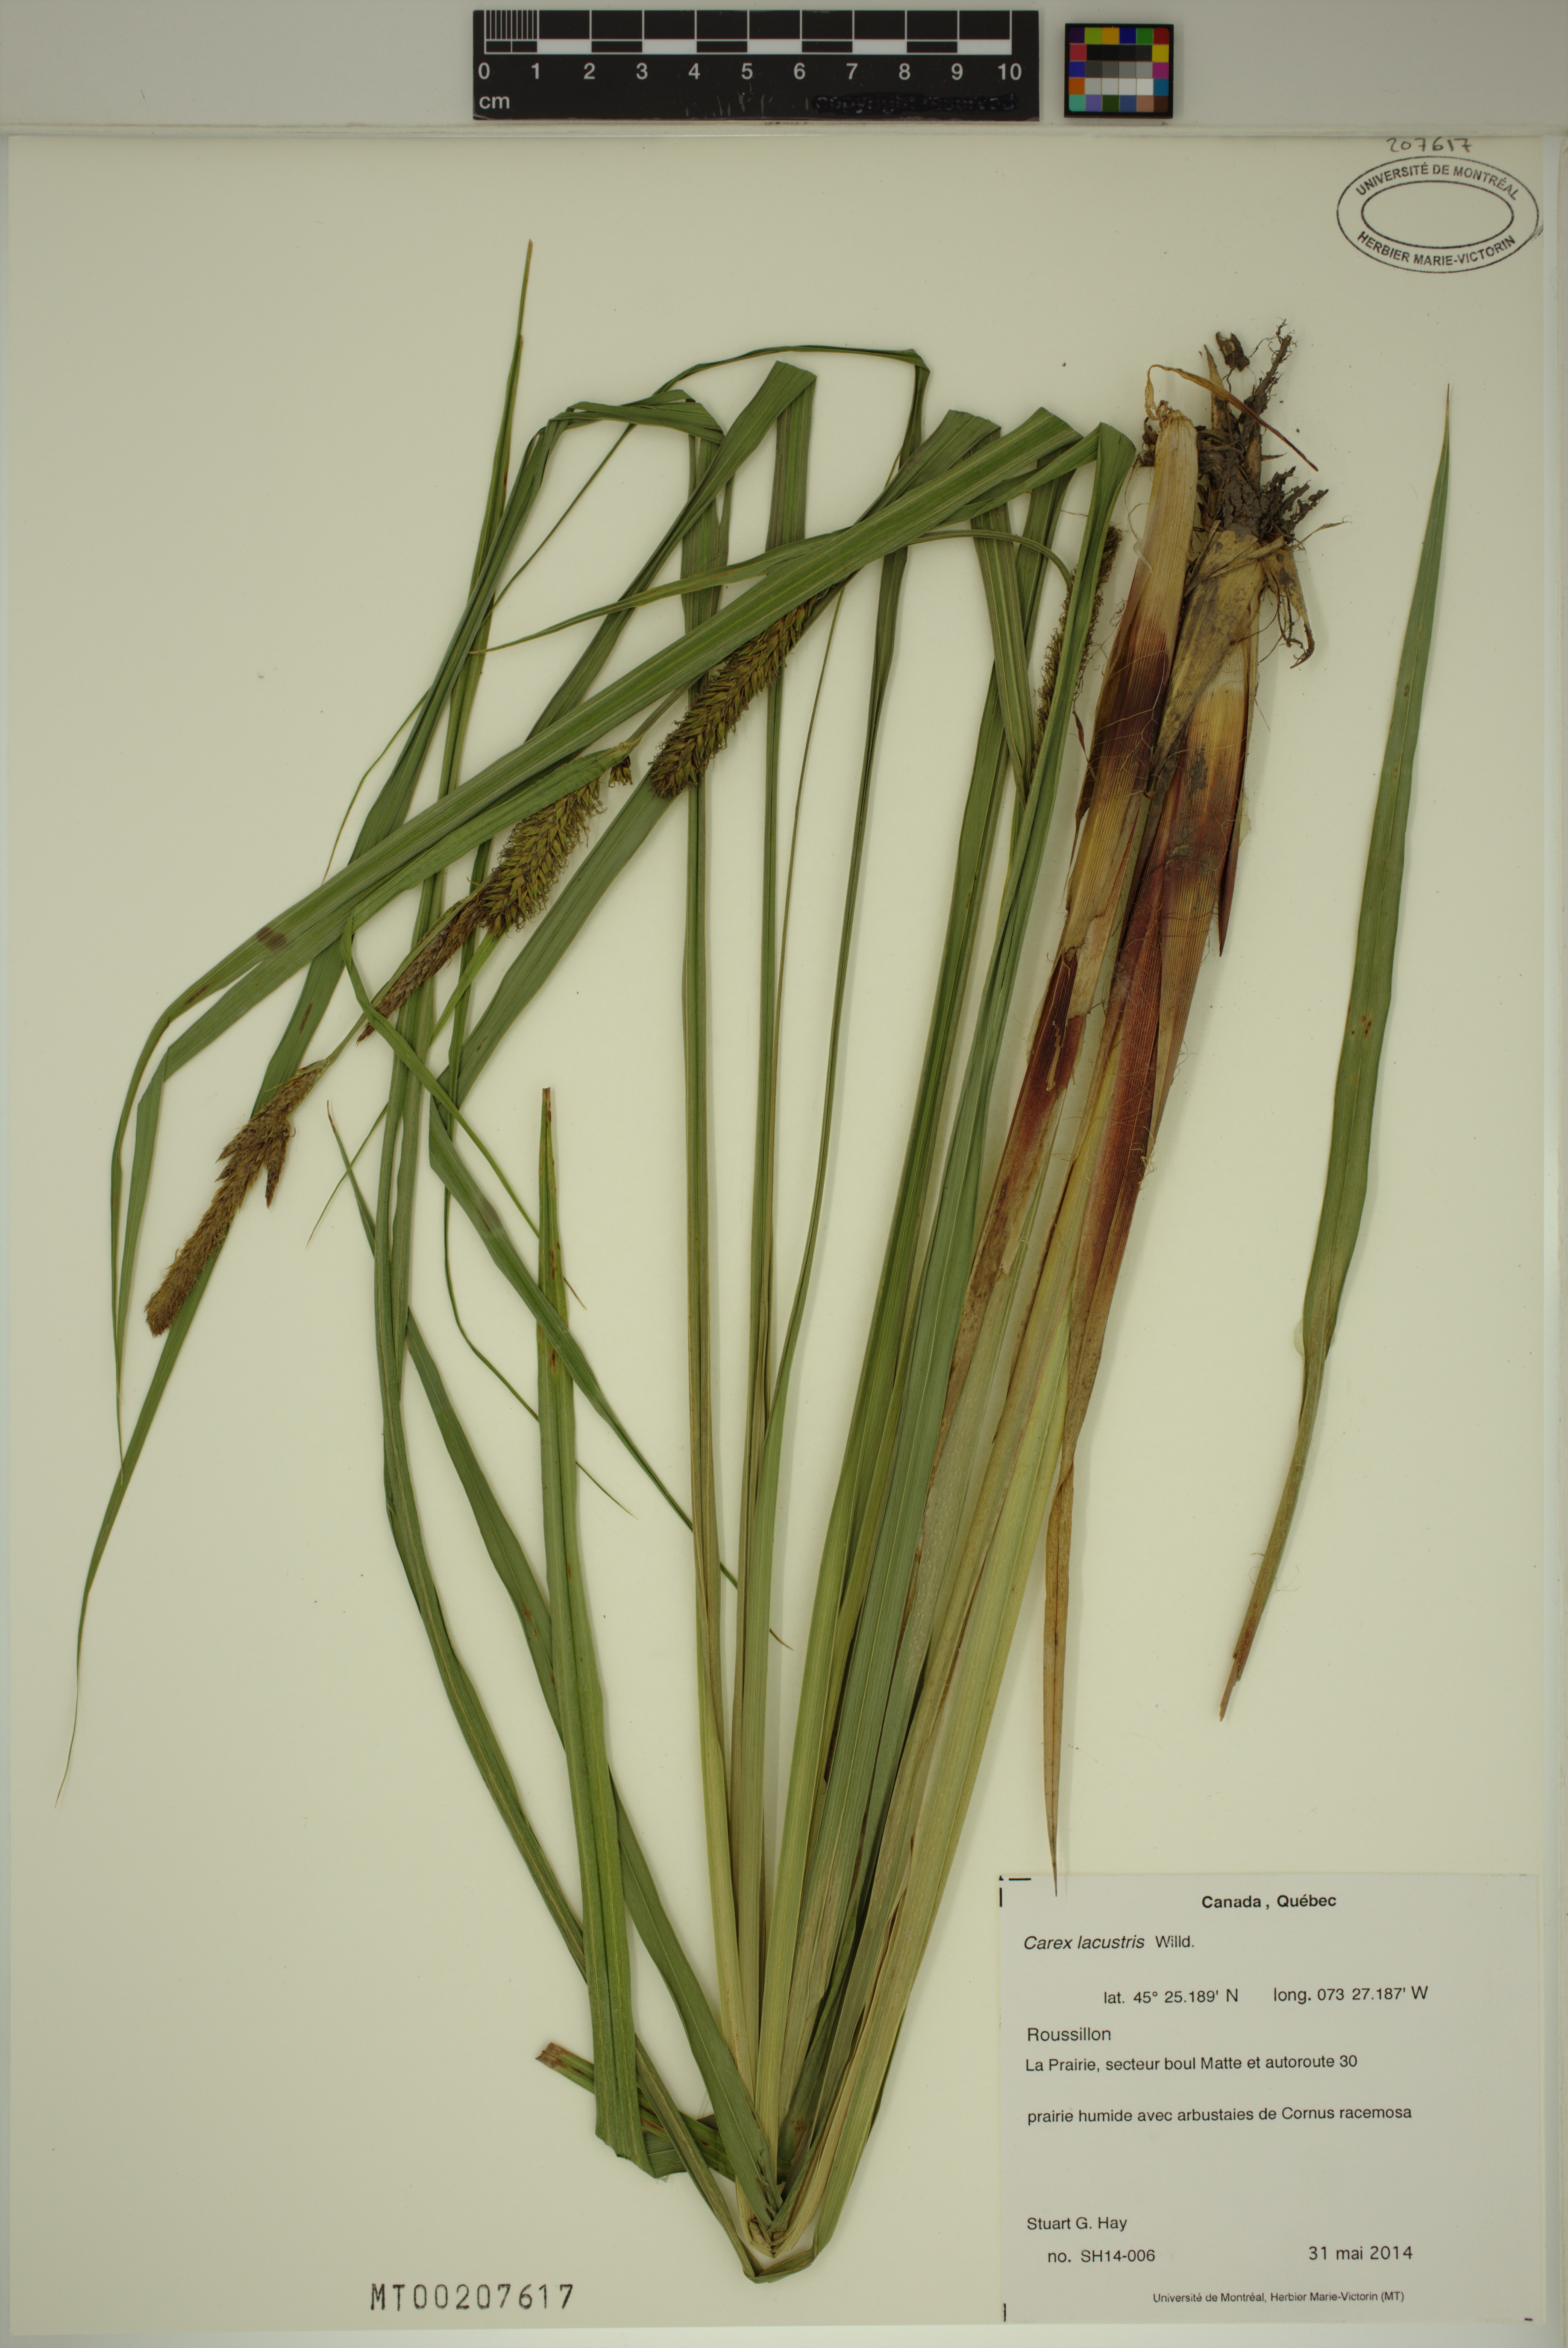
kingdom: Plantae
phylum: Tracheophyta
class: Liliopsida
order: Poales
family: Cyperaceae
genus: Carex
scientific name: Carex lacustris
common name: Common lake sedge
